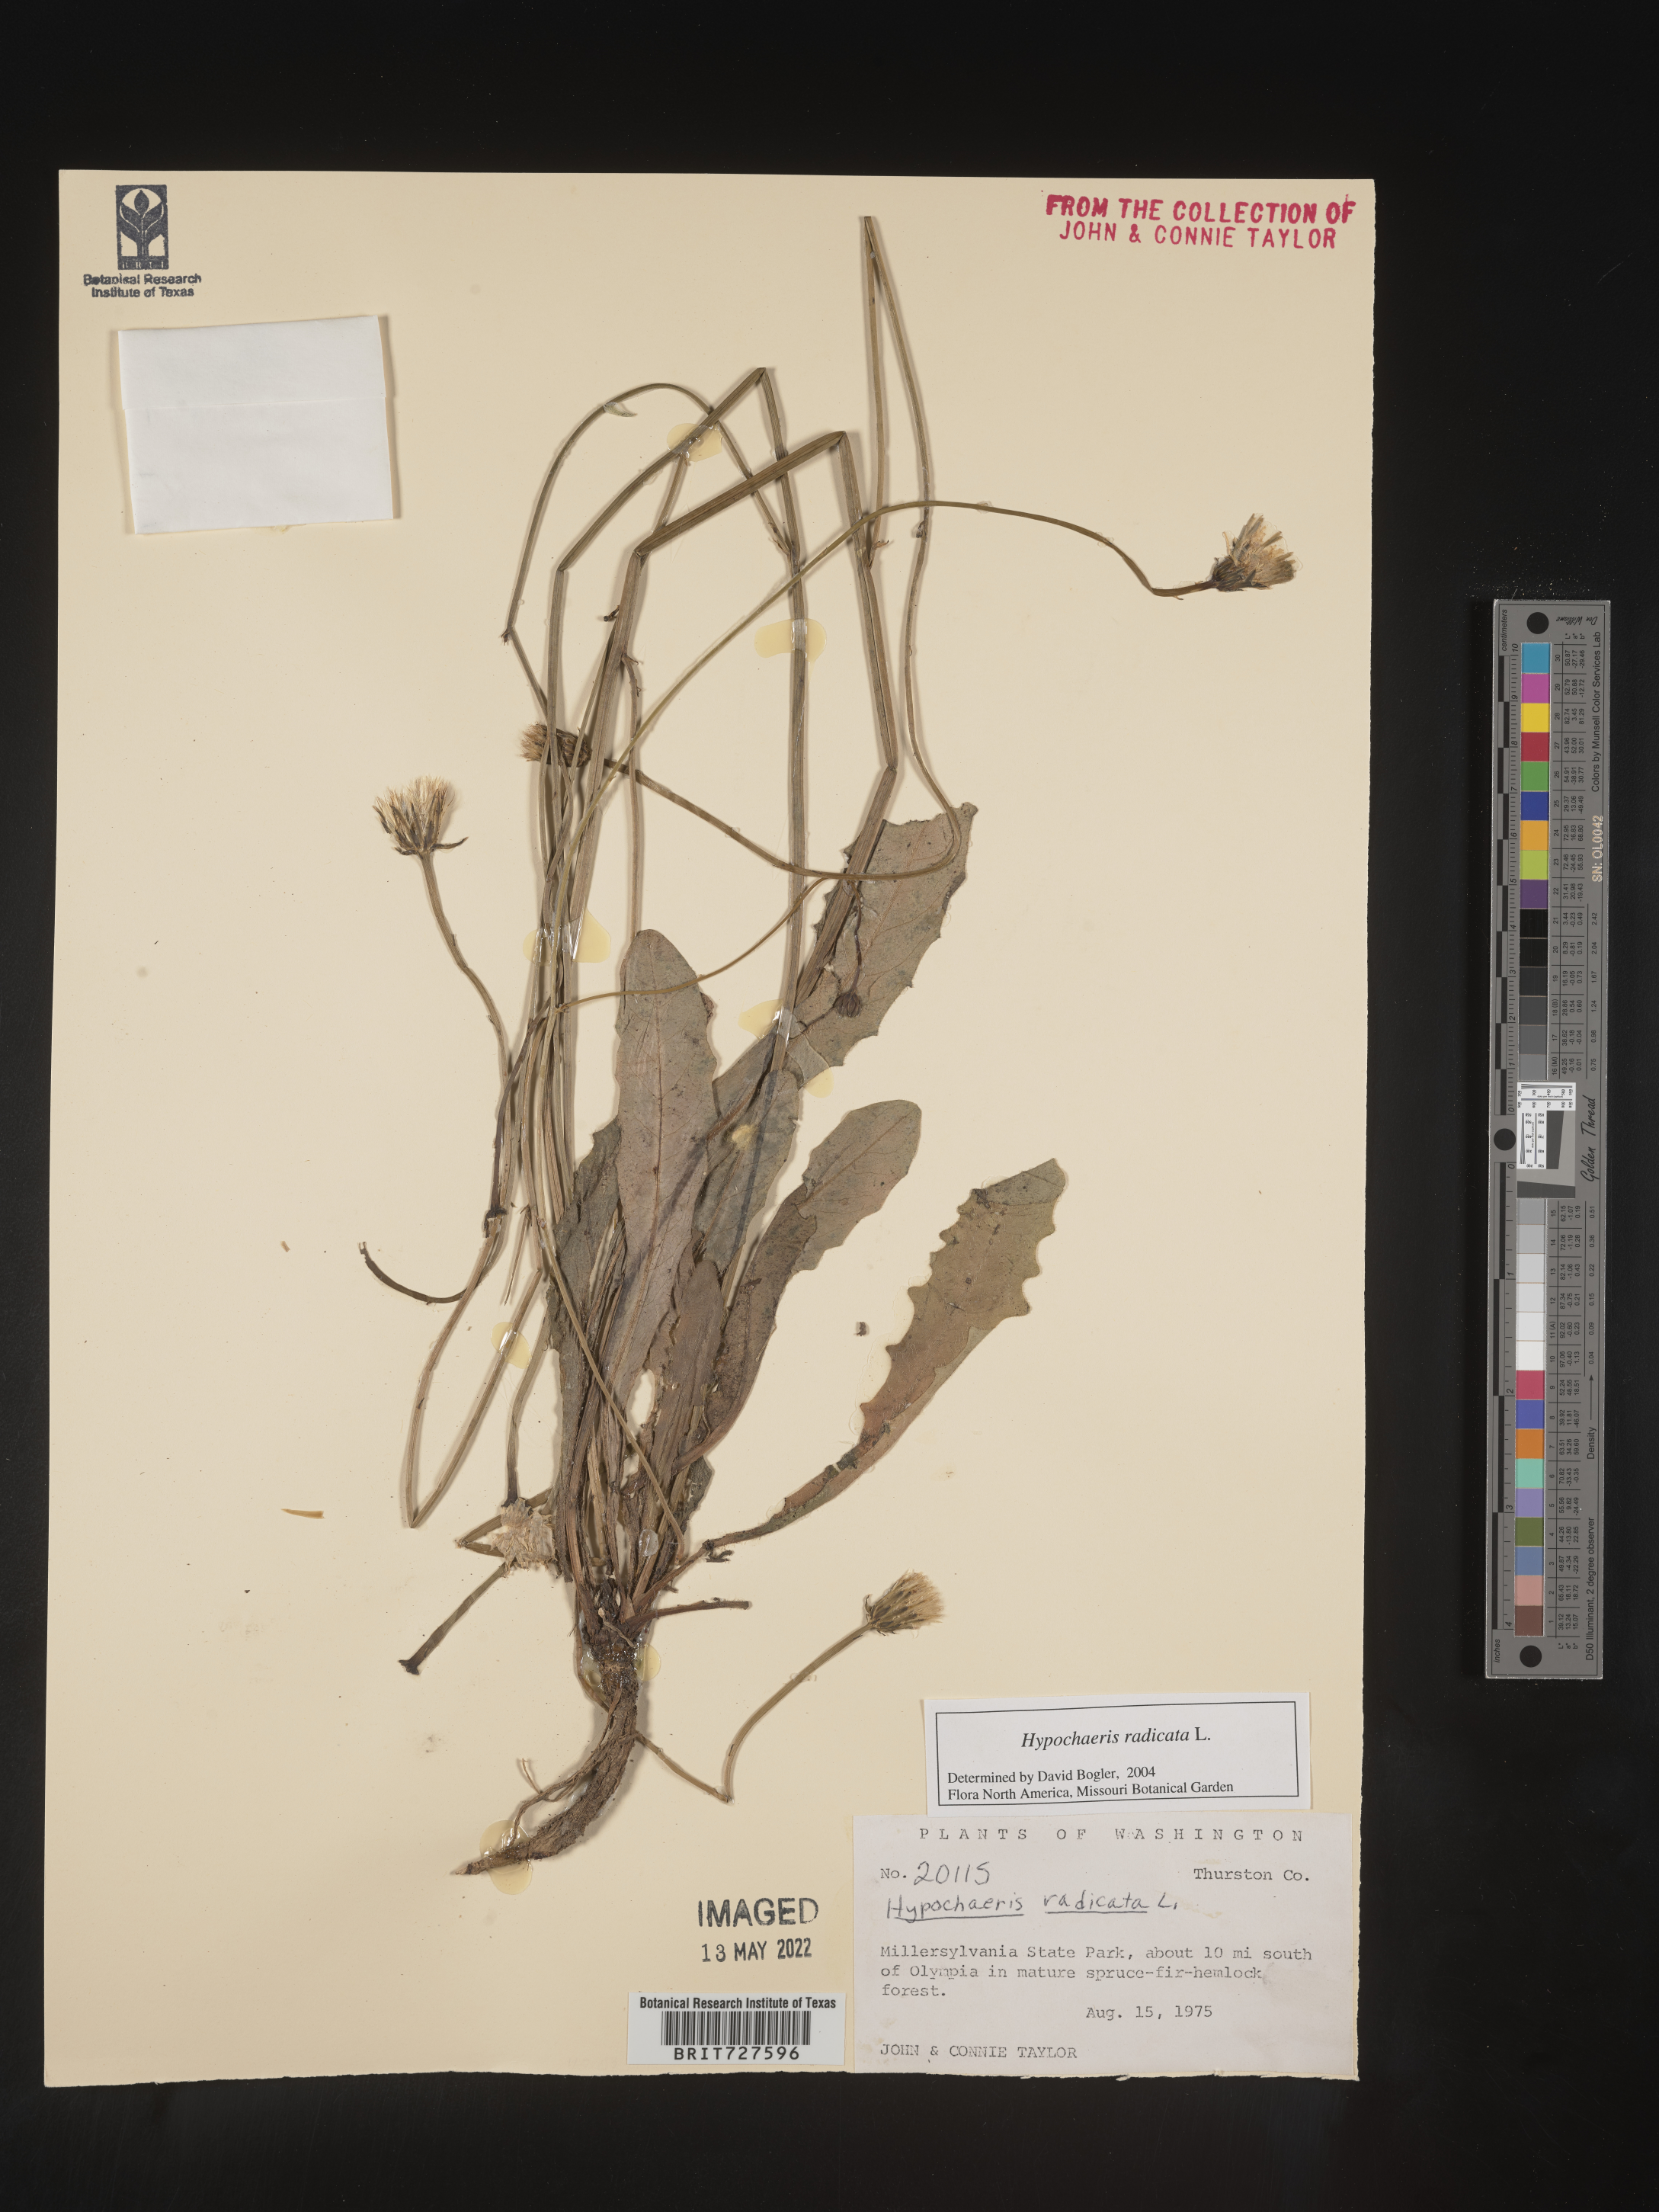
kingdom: Plantae
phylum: Tracheophyta
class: Magnoliopsida
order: Asterales
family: Asteraceae
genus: Hypochaeris
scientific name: Hypochaeris radicata
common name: Flatweed
